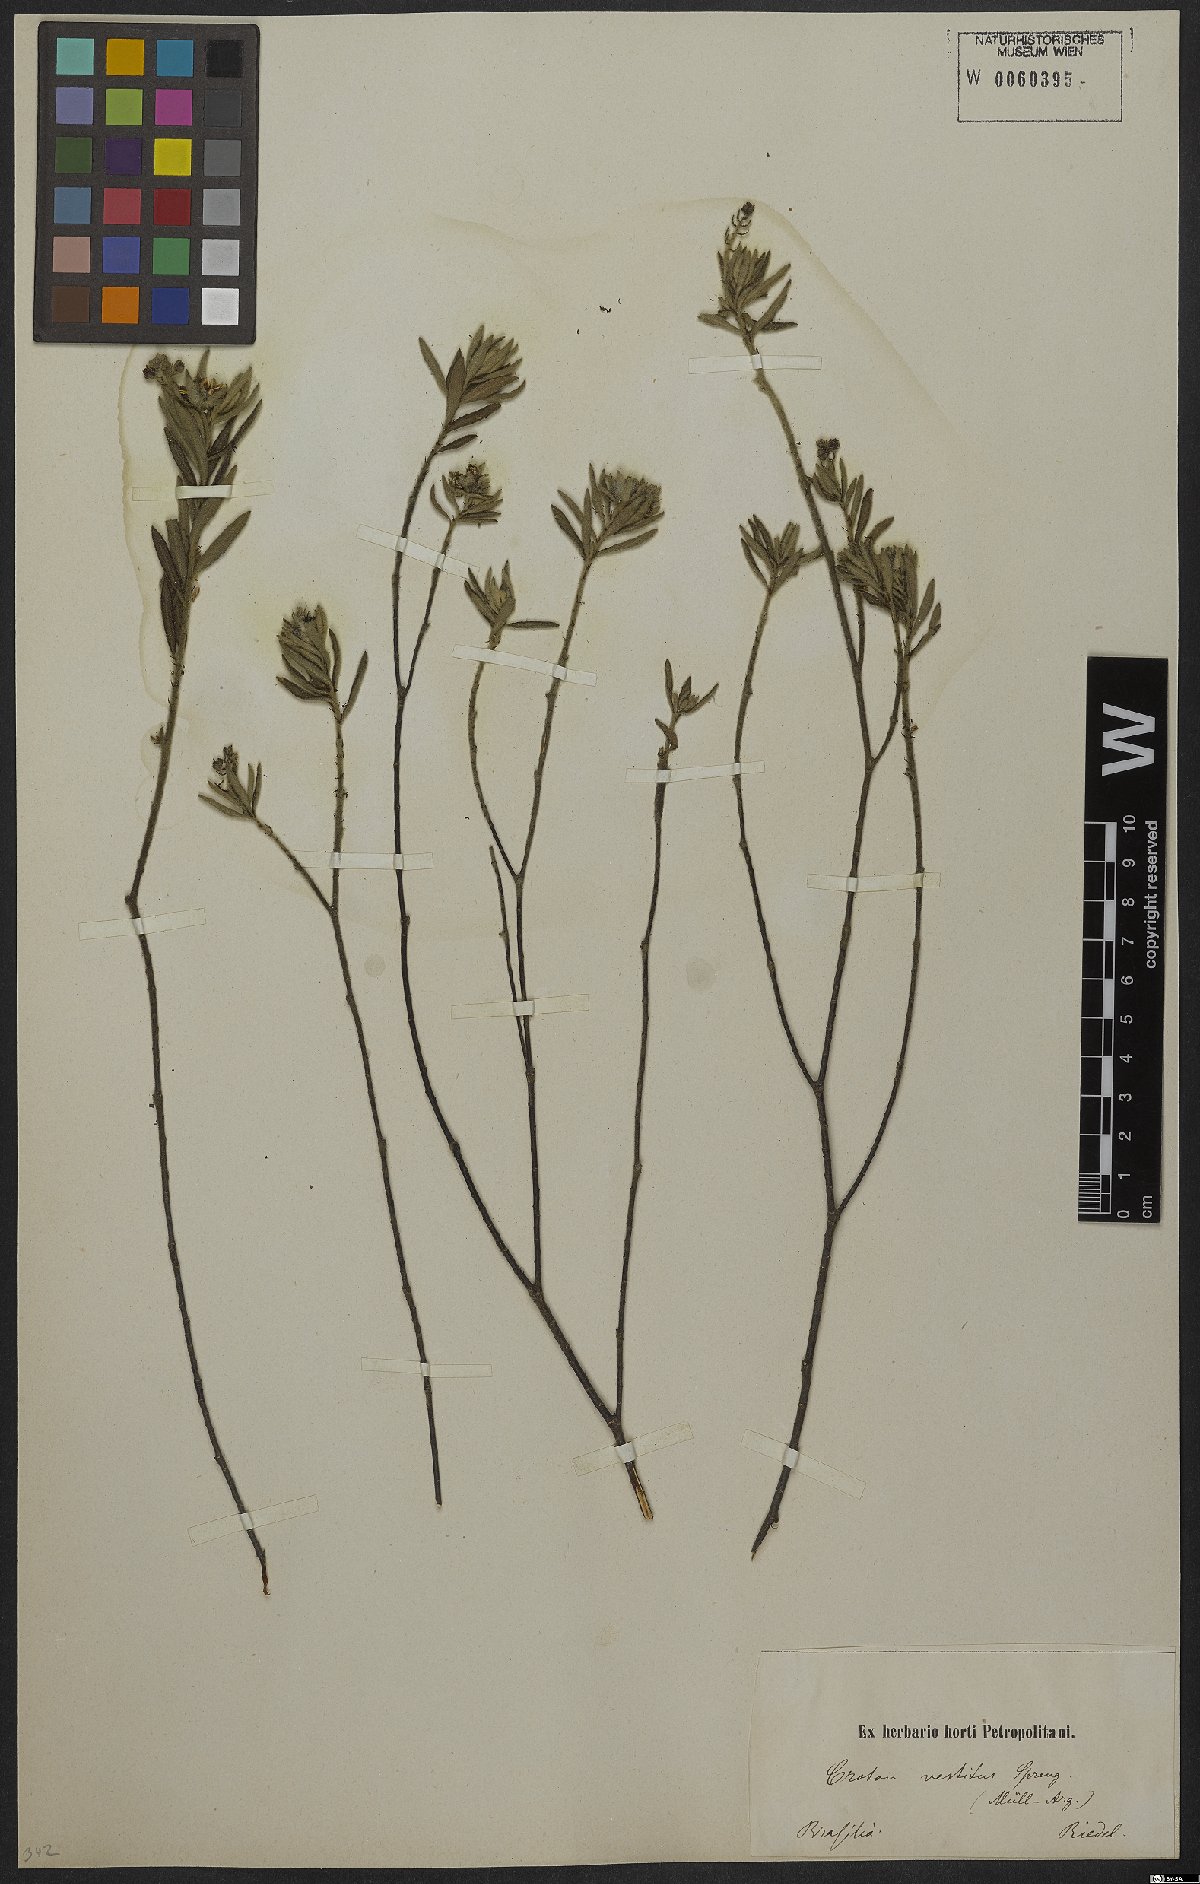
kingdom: Plantae
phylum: Tracheophyta
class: Magnoliopsida
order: Malpighiales
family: Euphorbiaceae
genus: Croton
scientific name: Croton vestitus
